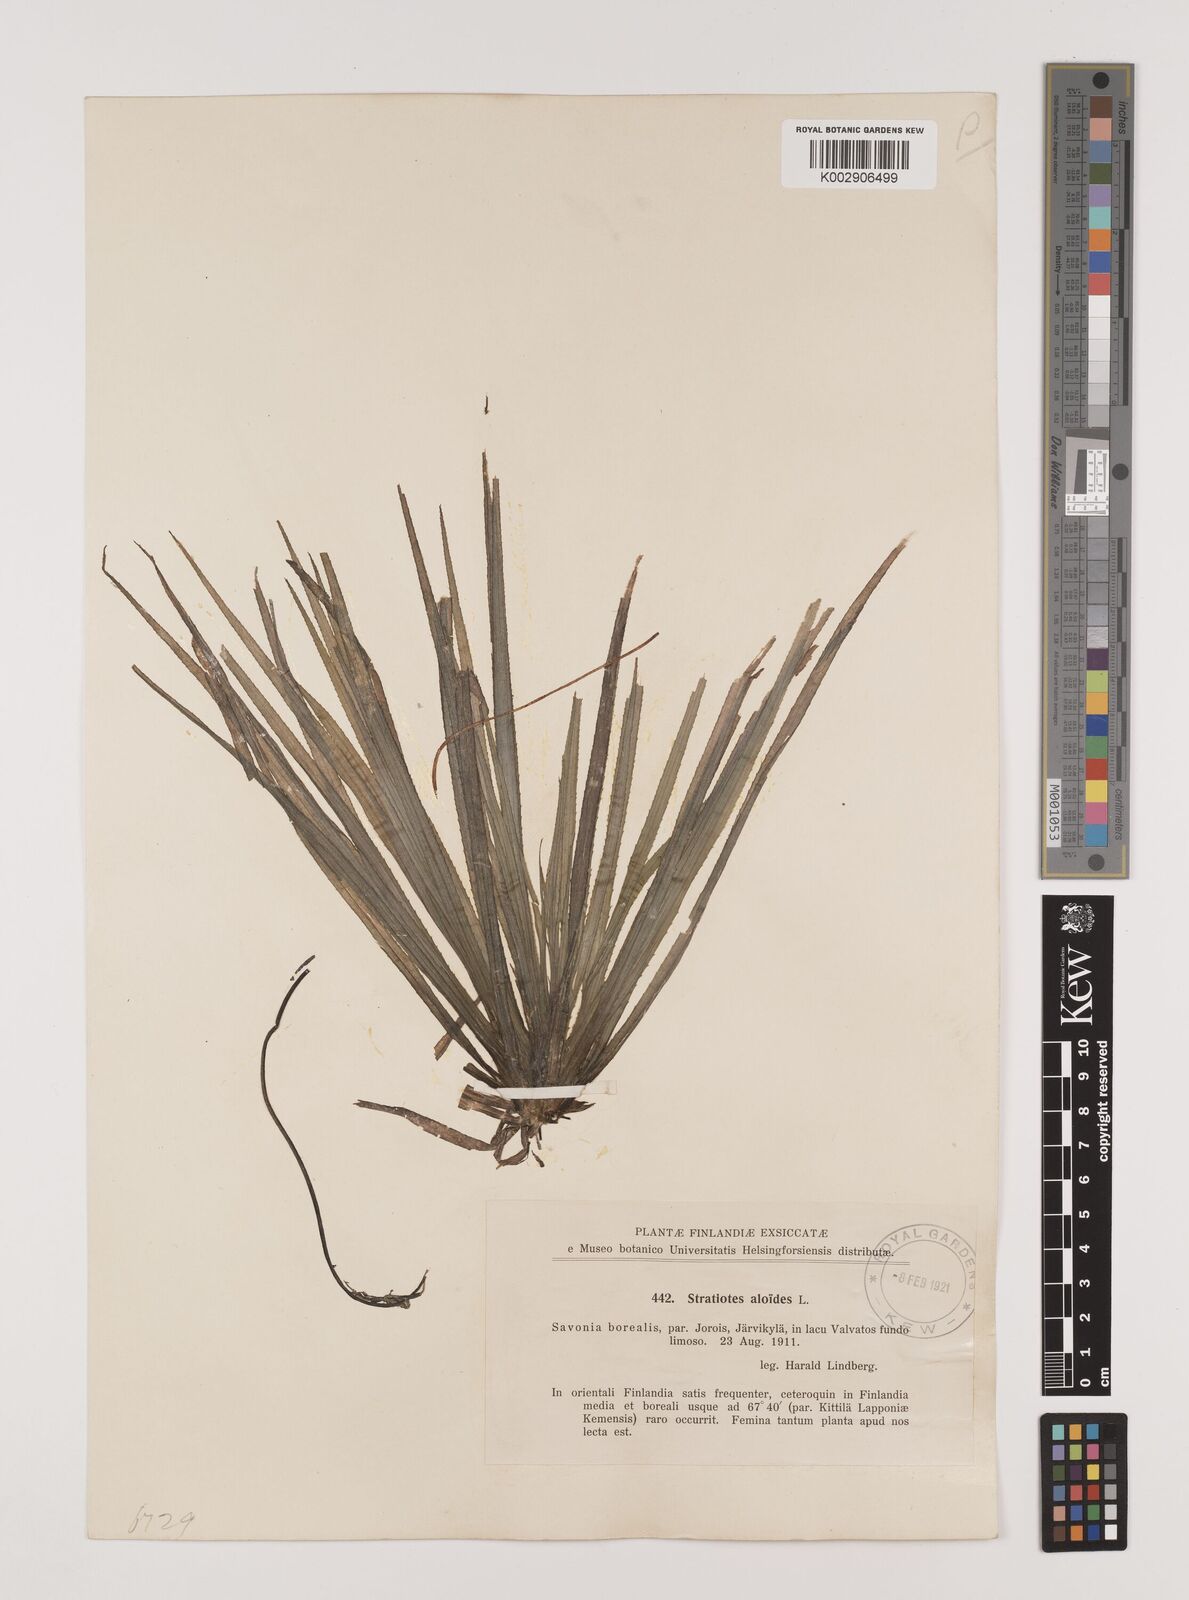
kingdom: Plantae
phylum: Tracheophyta
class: Liliopsida
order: Alismatales
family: Hydrocharitaceae
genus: Stratiotes
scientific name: Stratiotes aloides
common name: Water-soldier
